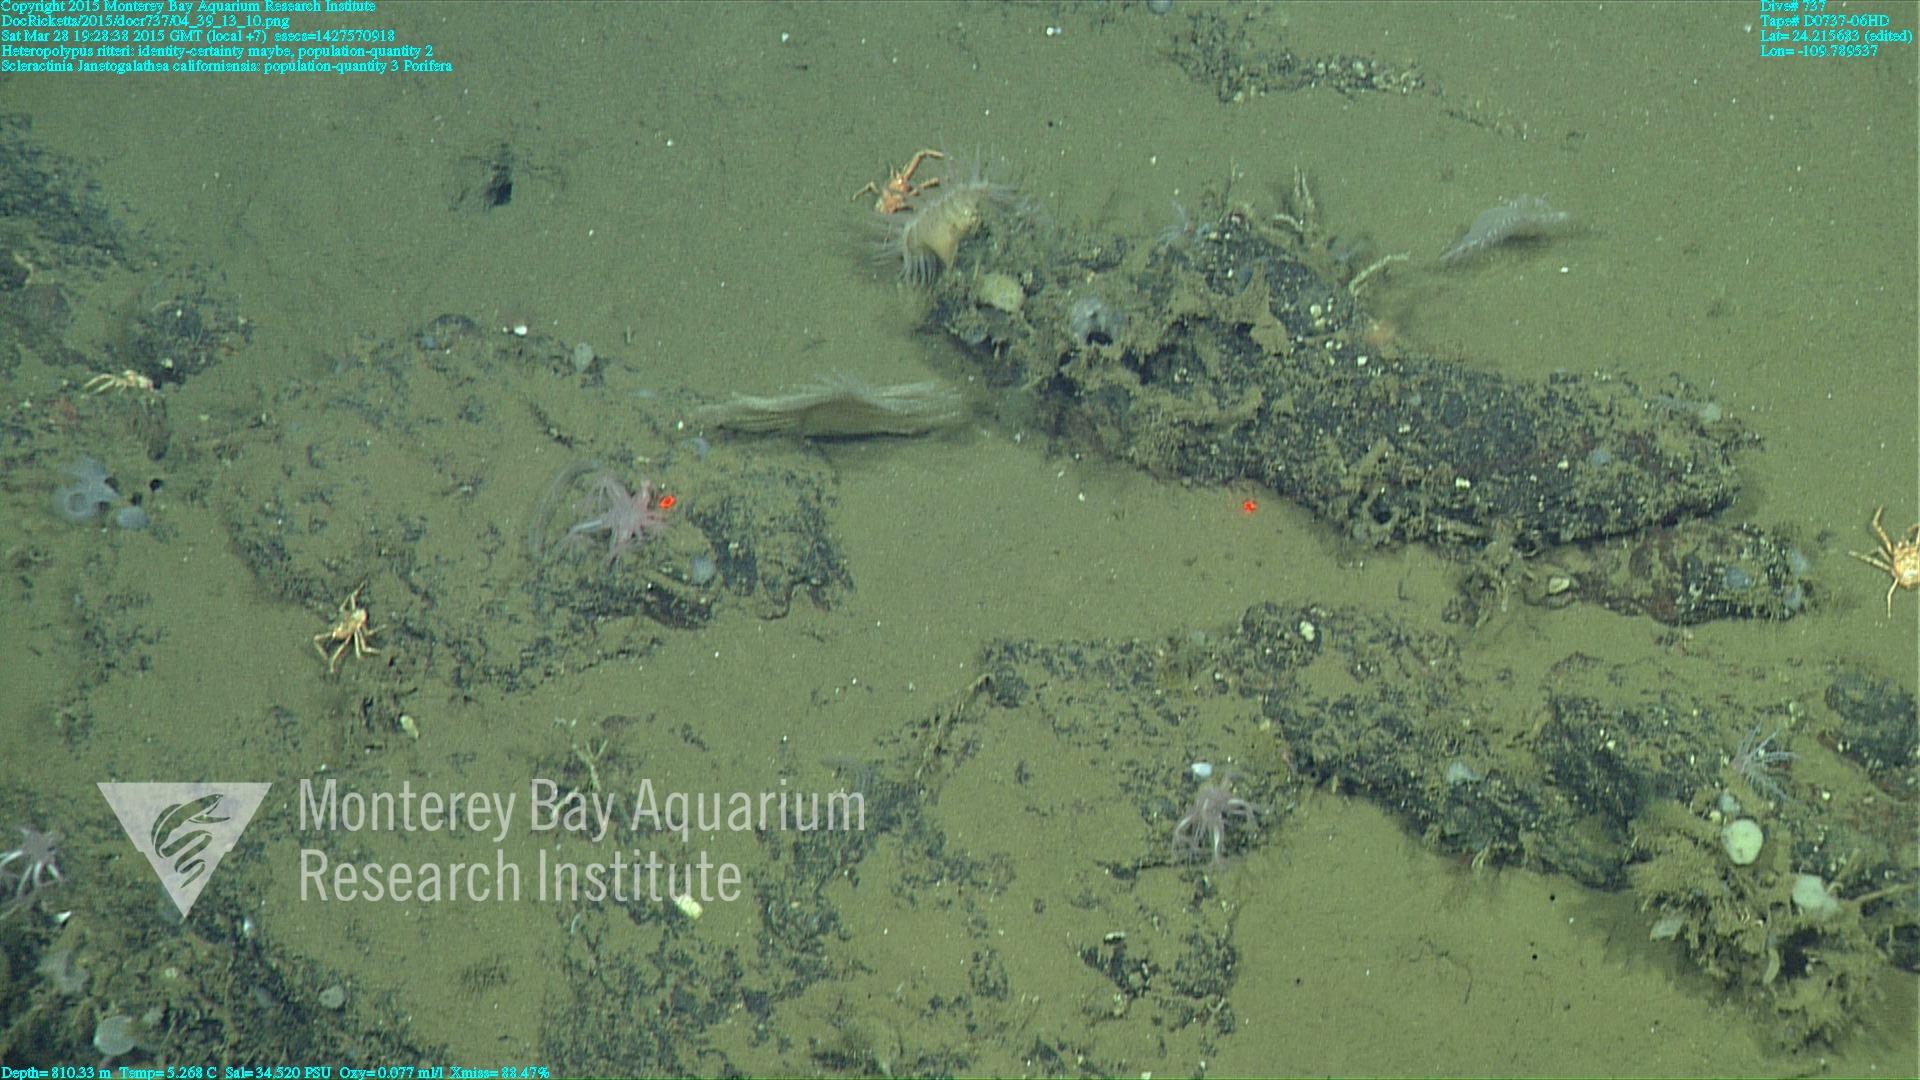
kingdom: Animalia
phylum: Cnidaria
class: Anthozoa
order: Scleractinia
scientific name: Scleractinia
